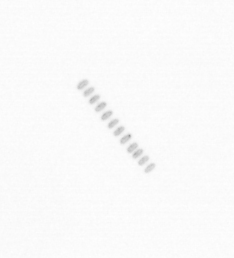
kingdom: Chromista
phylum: Ochrophyta
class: Bacillariophyceae
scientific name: Bacillariophyceae
